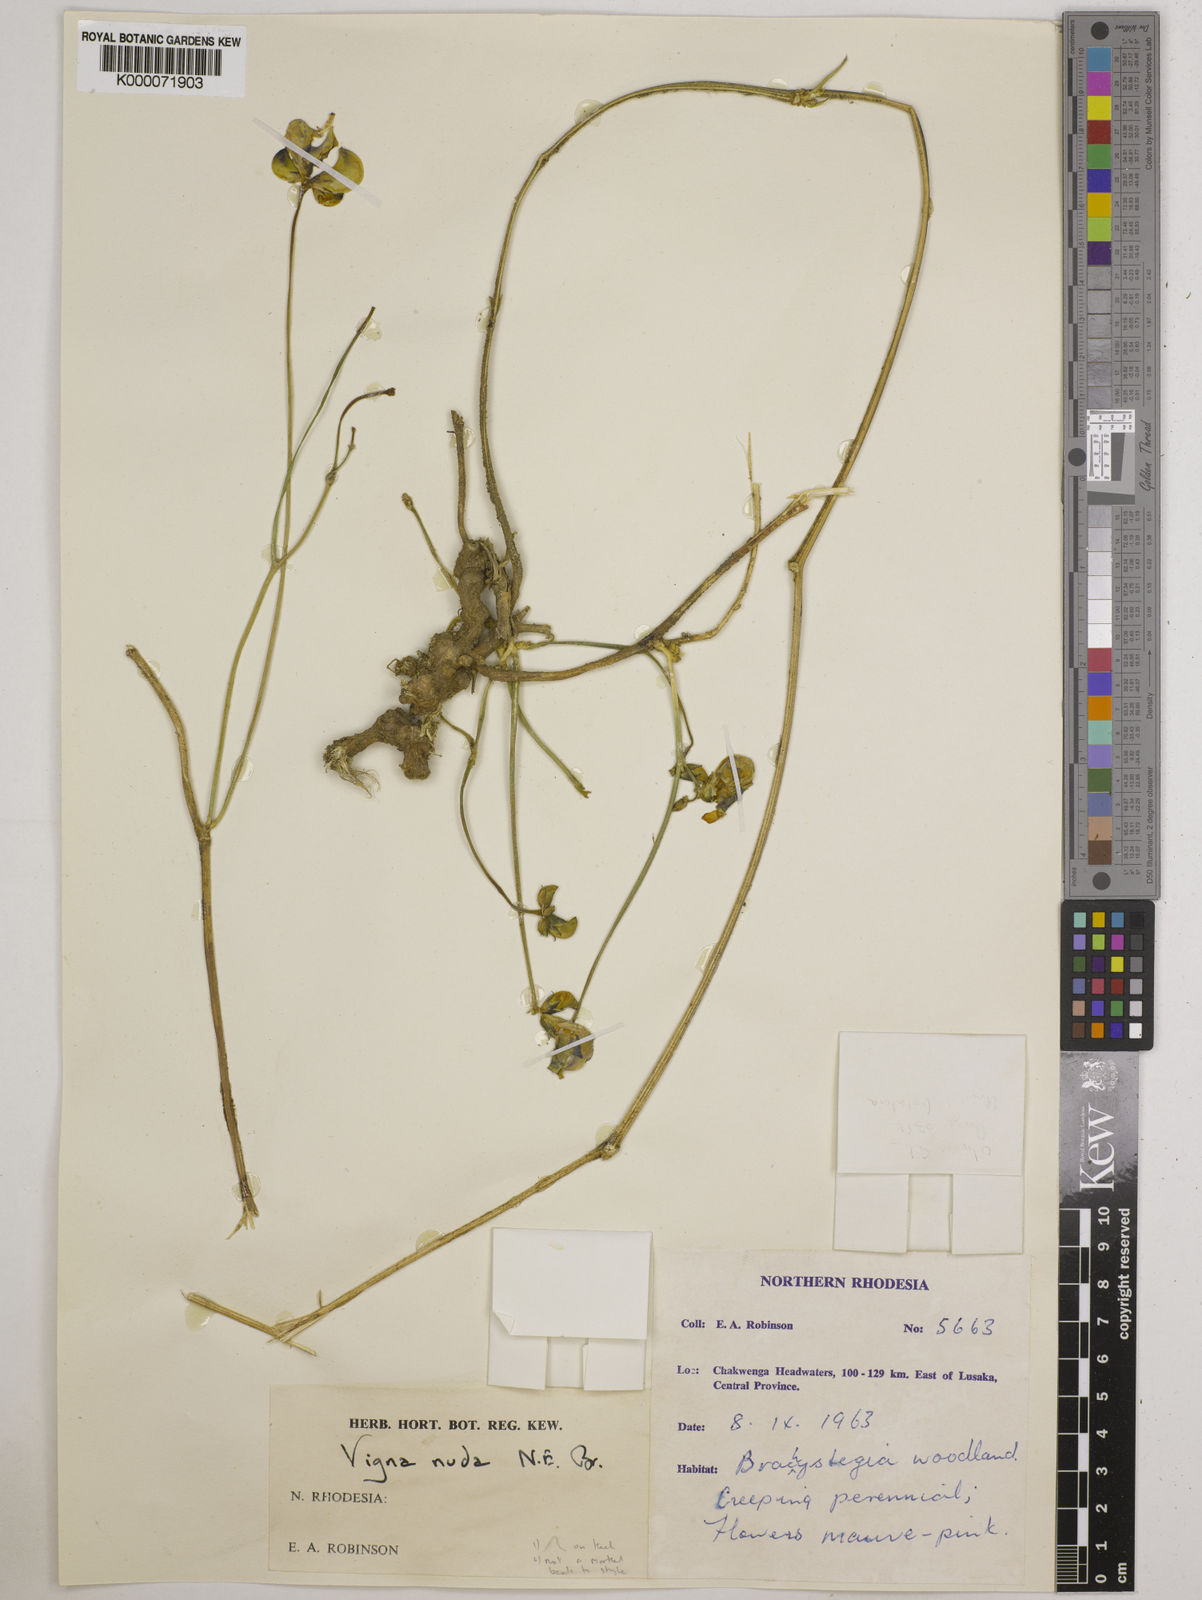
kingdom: Plantae
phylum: Tracheophyta
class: Magnoliopsida
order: Fabales
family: Fabaceae
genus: Vigna
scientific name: Vigna antunesii
